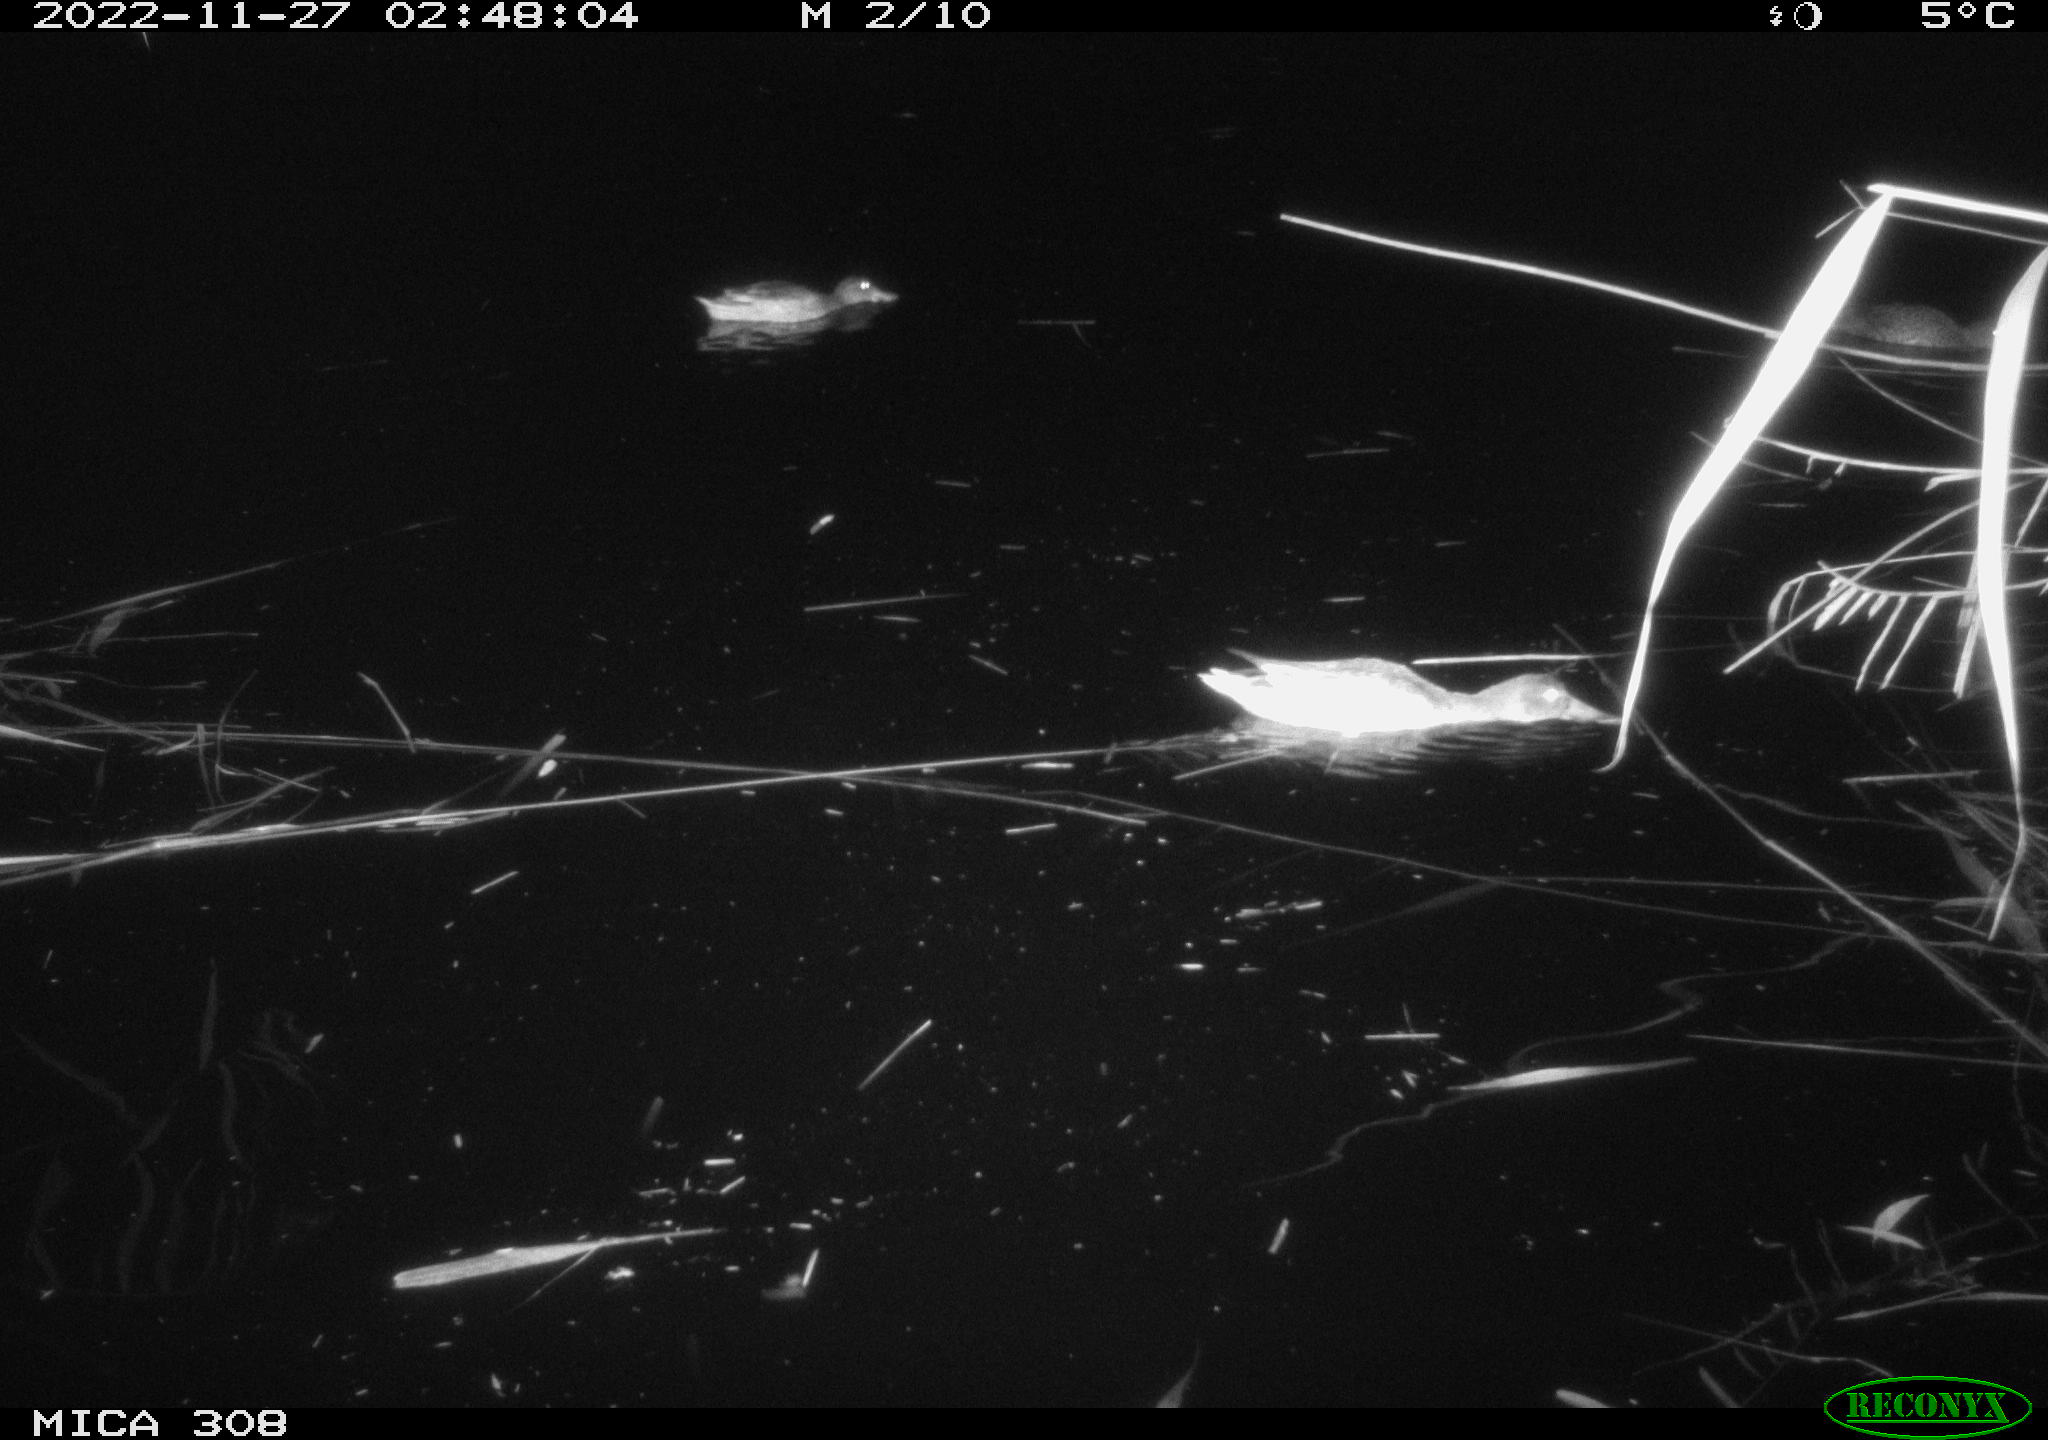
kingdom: Animalia
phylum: Chordata
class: Aves
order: Anseriformes
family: Anatidae
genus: Anas
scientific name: Anas
